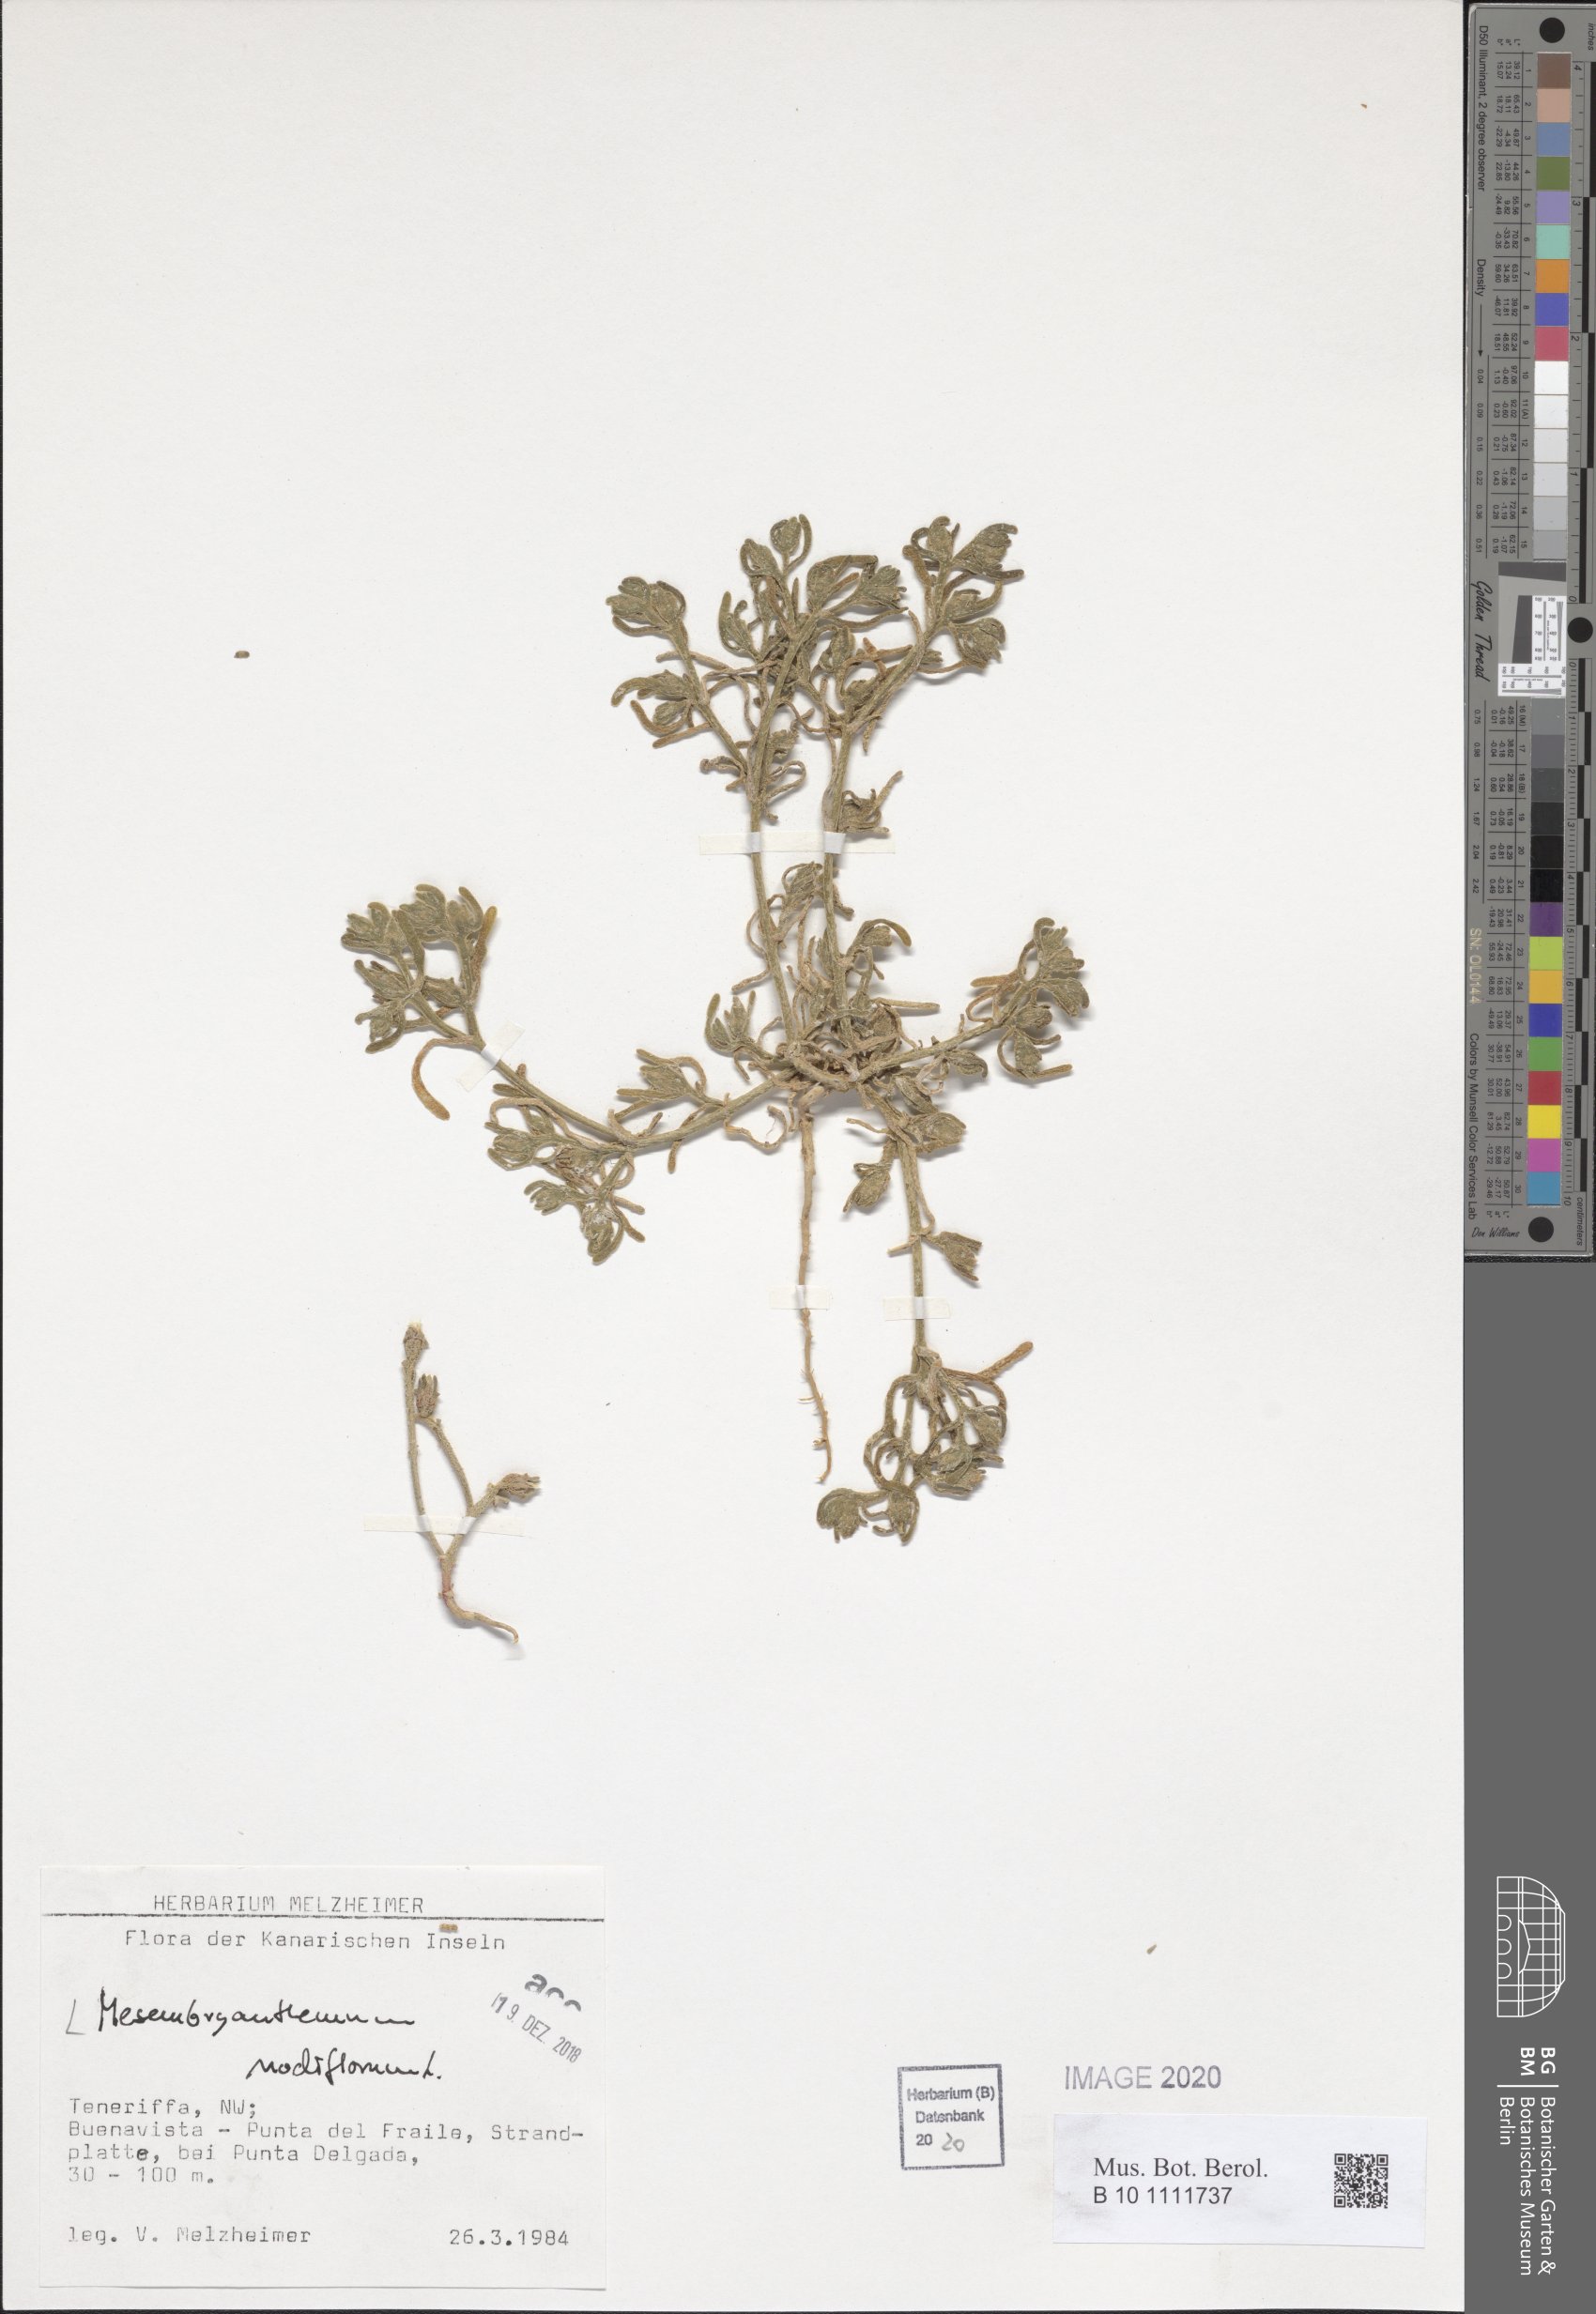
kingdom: Plantae
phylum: Tracheophyta
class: Magnoliopsida
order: Caryophyllales
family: Aizoaceae
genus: Mesembryanthemum
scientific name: Mesembryanthemum nodiflorum
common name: Slenderleaf iceplant
